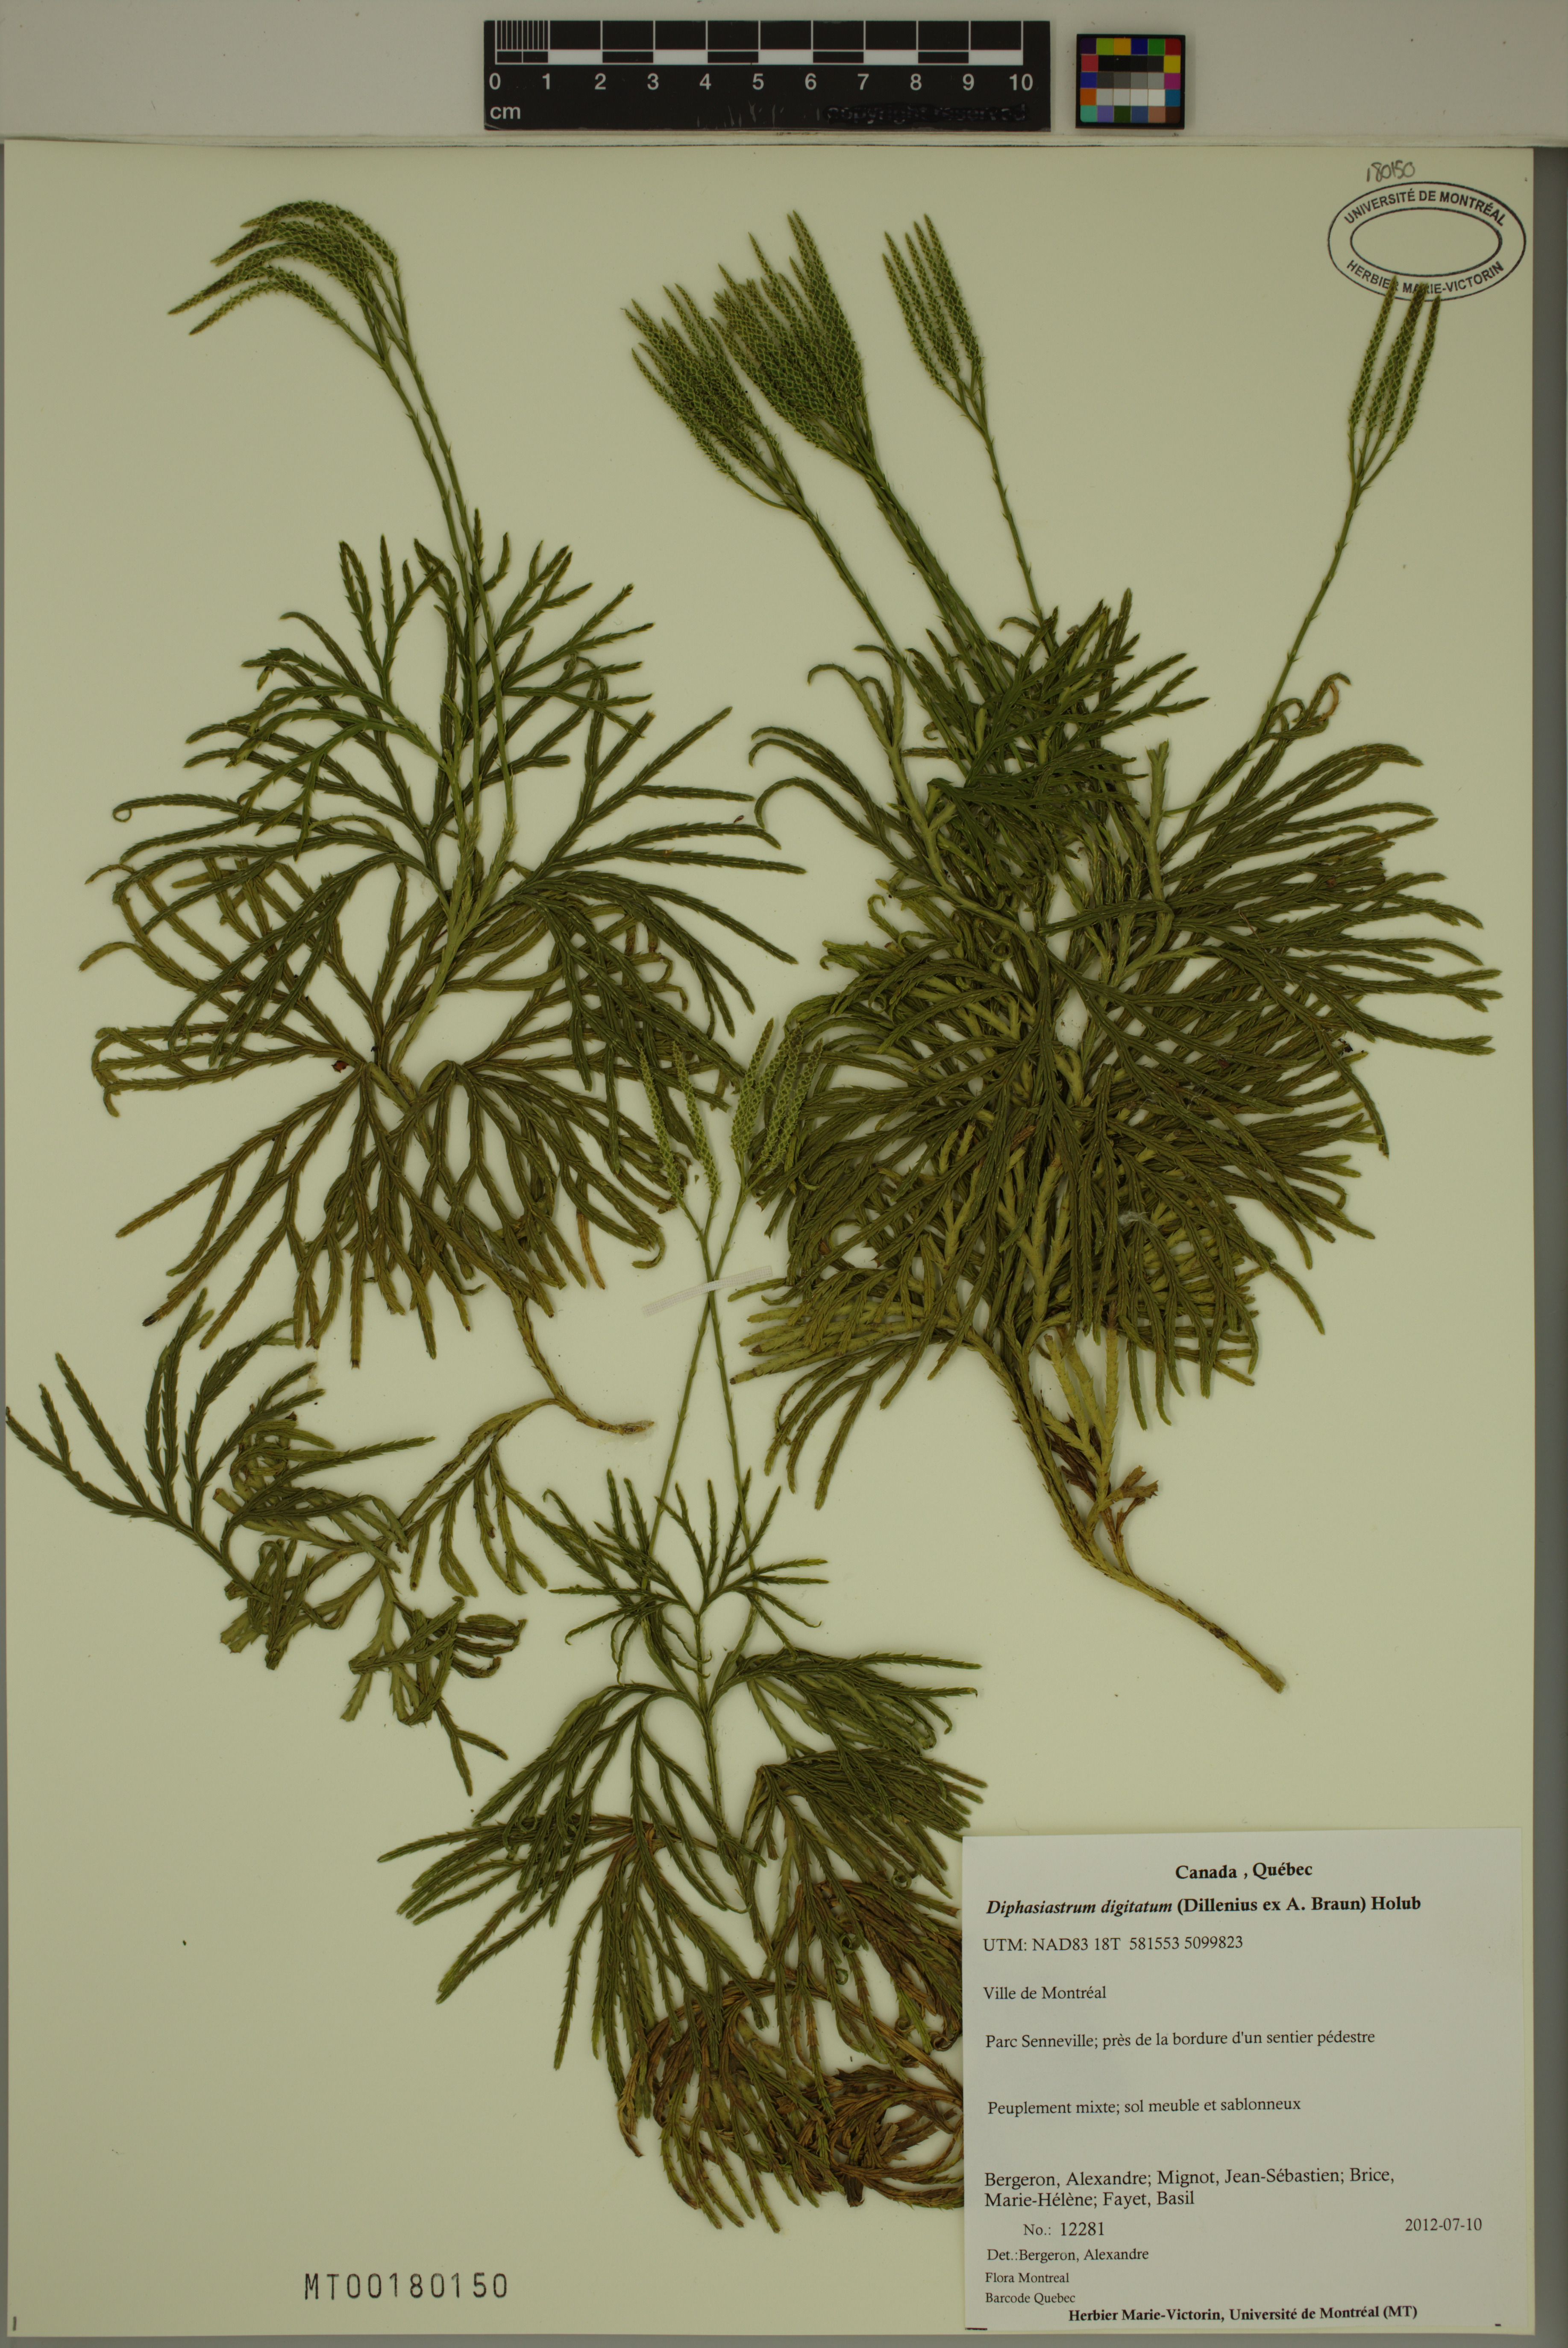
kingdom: Plantae
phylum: Tracheophyta
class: Lycopodiopsida
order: Lycopodiales
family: Lycopodiaceae
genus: Diphasiastrum
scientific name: Diphasiastrum digitatum
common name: Southern running-pine
